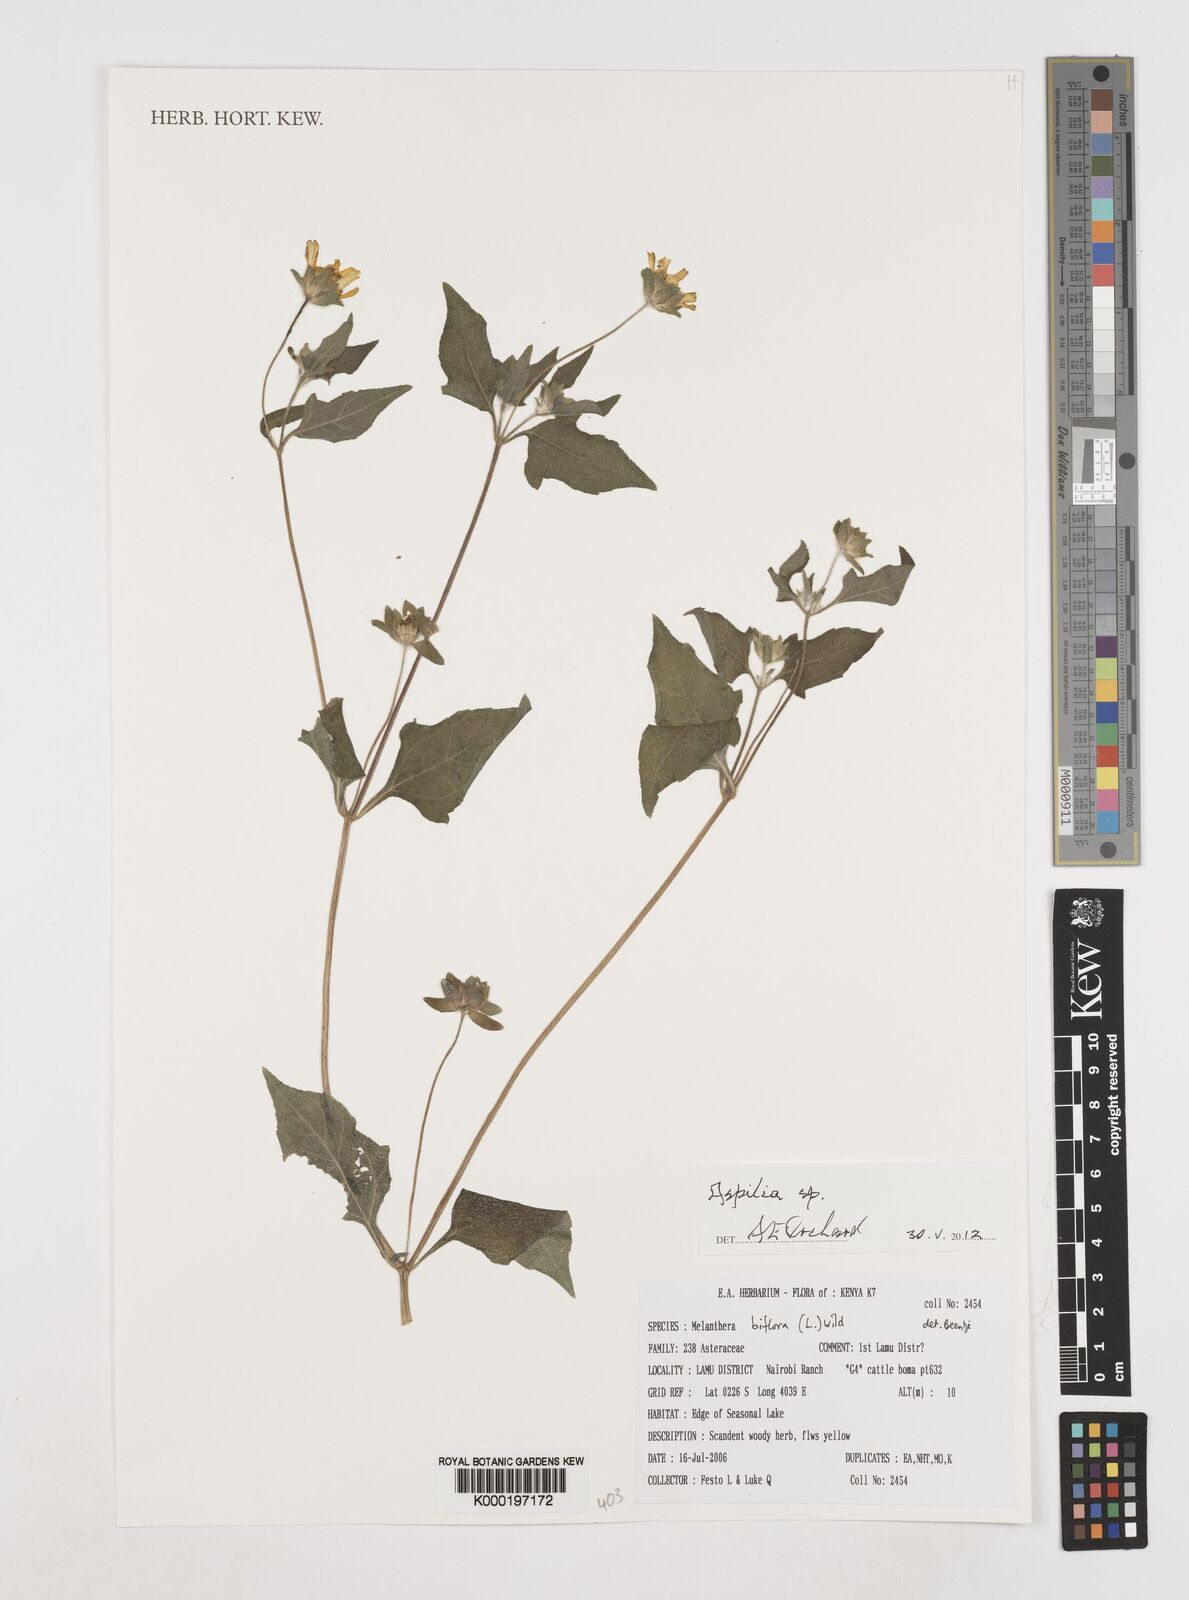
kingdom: Plantae
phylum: Tracheophyta
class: Magnoliopsida
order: Asterales
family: Asteraceae
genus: Wollastonia
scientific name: Wollastonia biflora
